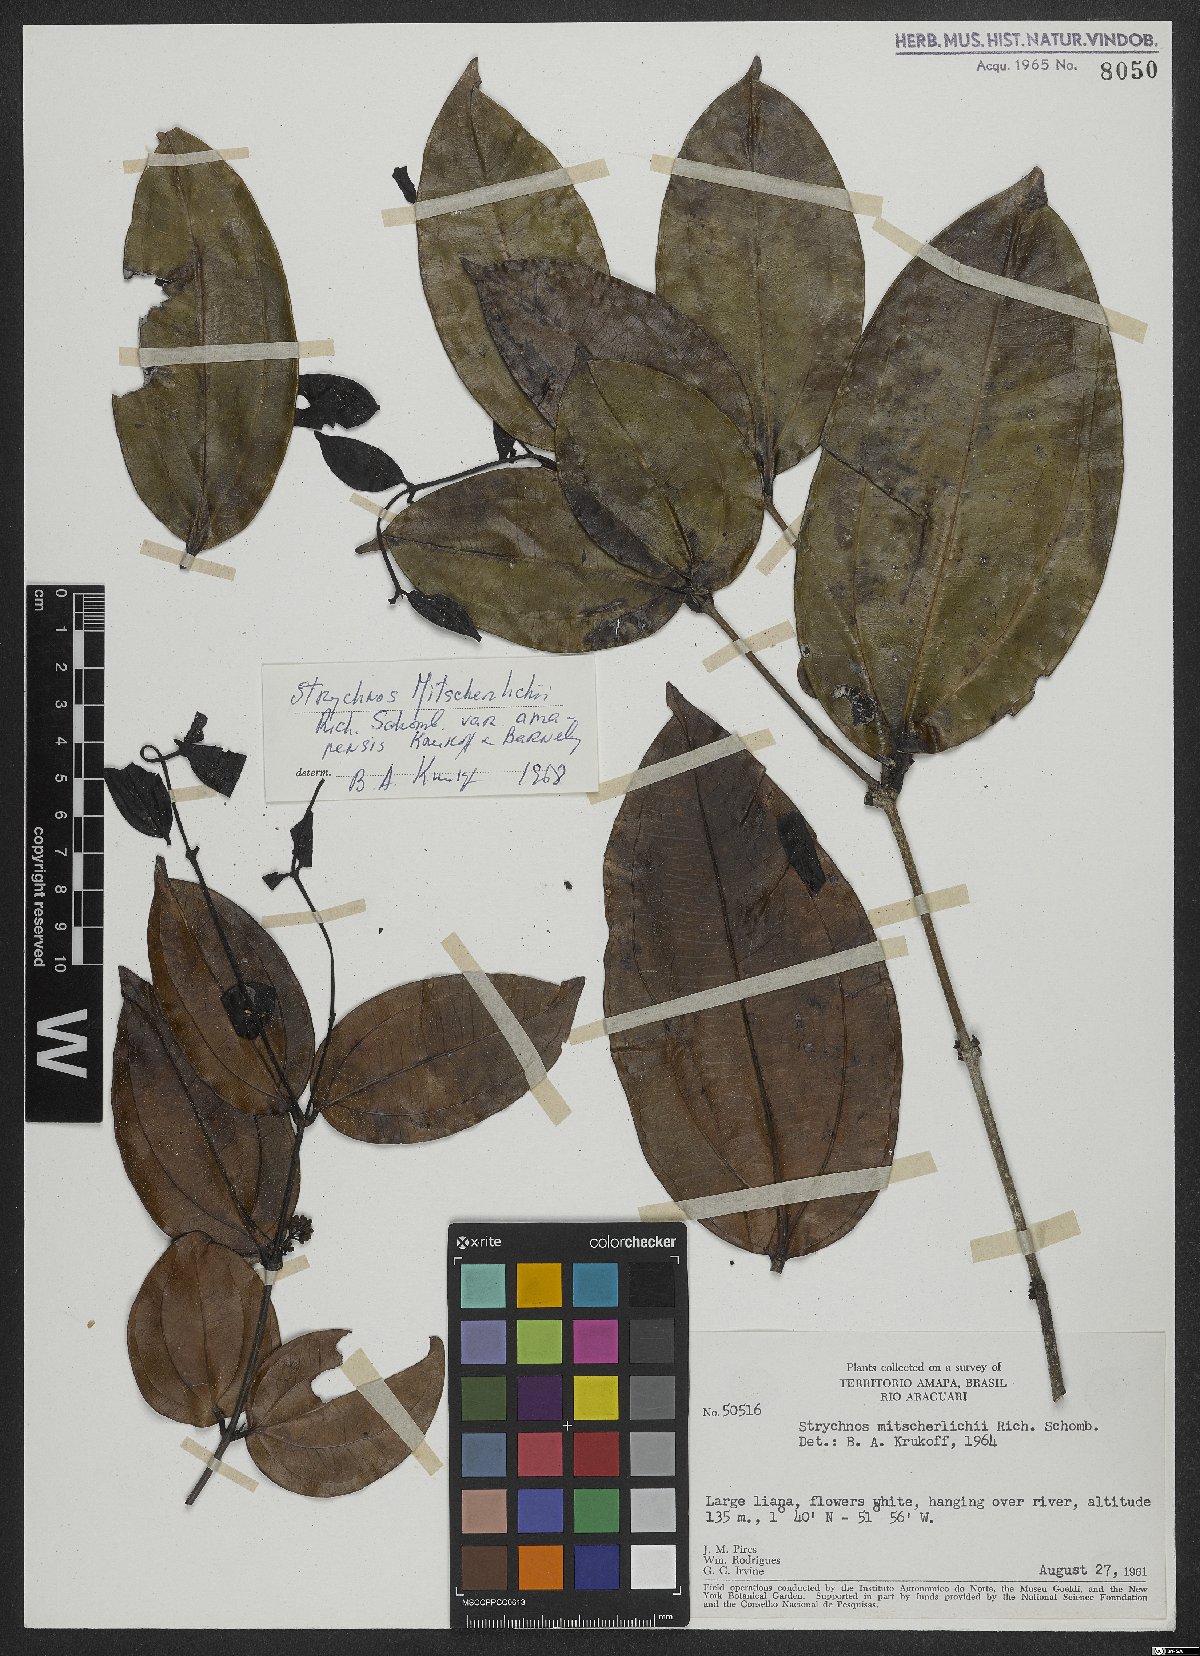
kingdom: Plantae
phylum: Tracheophyta
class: Magnoliopsida
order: Gentianales
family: Loganiaceae
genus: Strychnos
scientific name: Strychnos mitscherlichii
